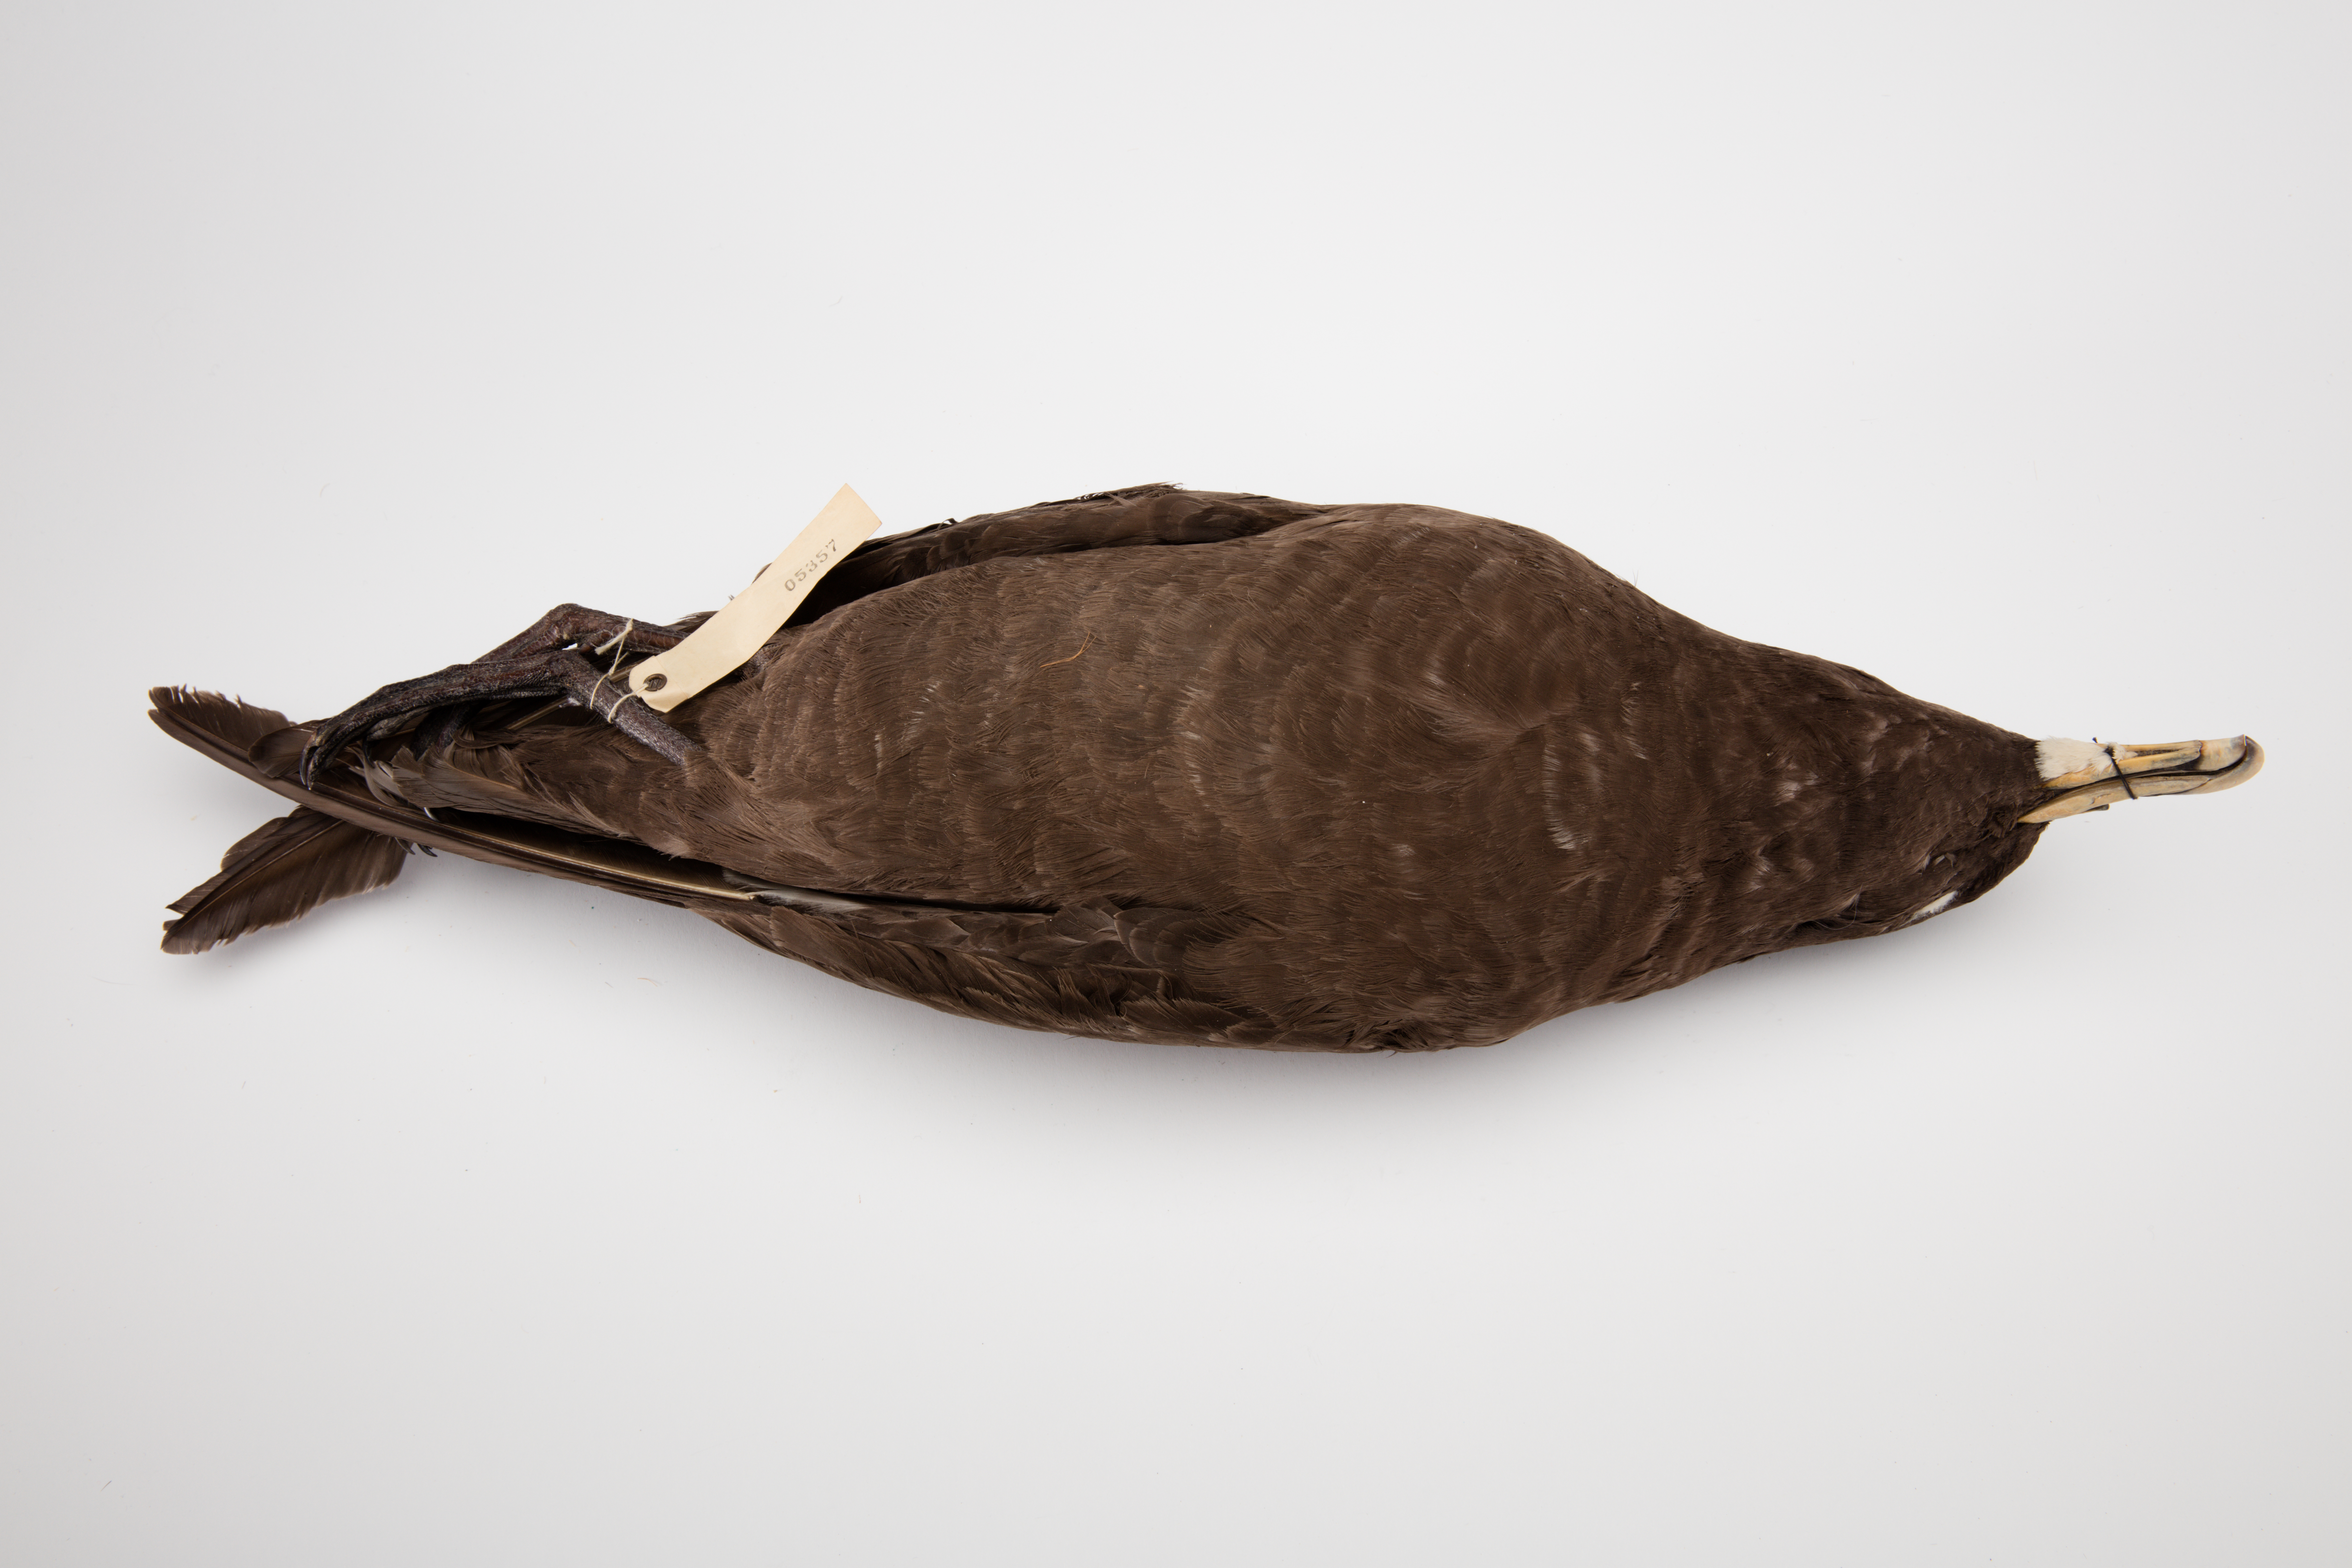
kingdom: Animalia
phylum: Chordata
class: Aves
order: Procellariiformes
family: Procellariidae
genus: Procellaria
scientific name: Procellaria aequinoctialis
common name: White-chinned petrel
